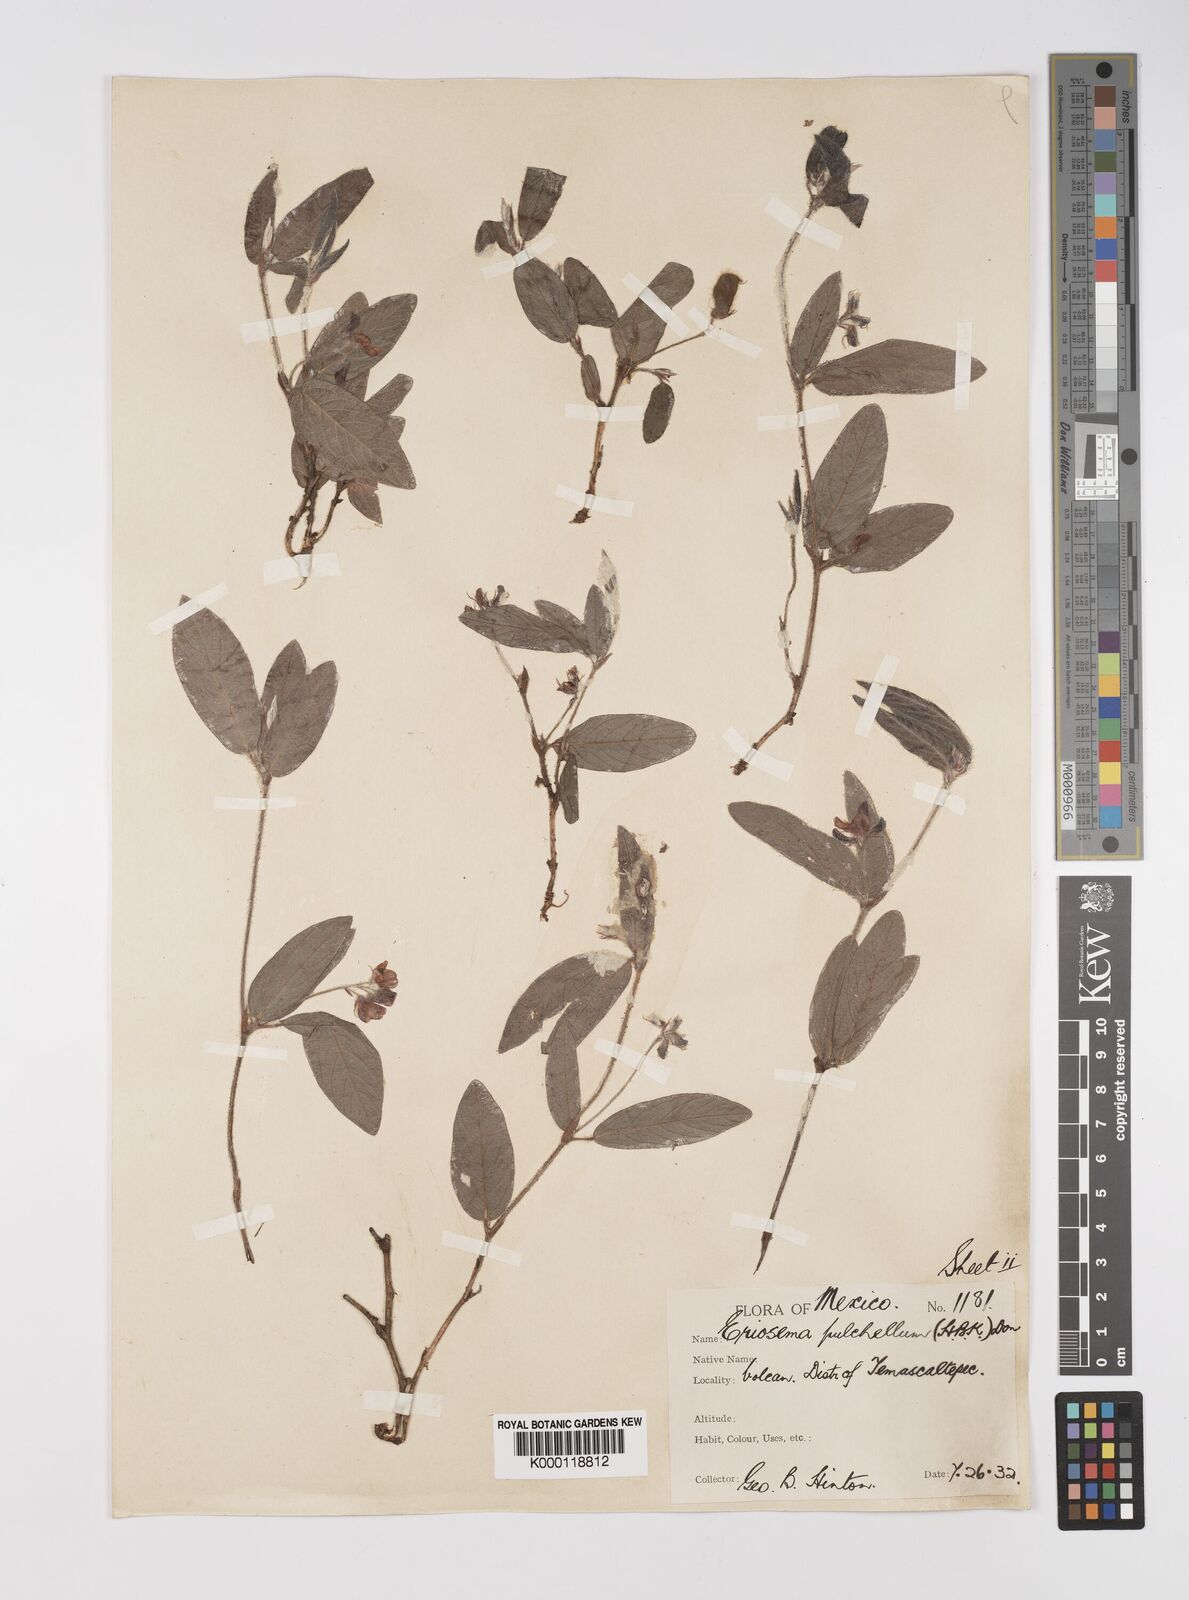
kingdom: Plantae
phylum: Tracheophyta
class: Magnoliopsida
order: Fabales
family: Fabaceae
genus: Eriosema
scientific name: Eriosema pulchellum
